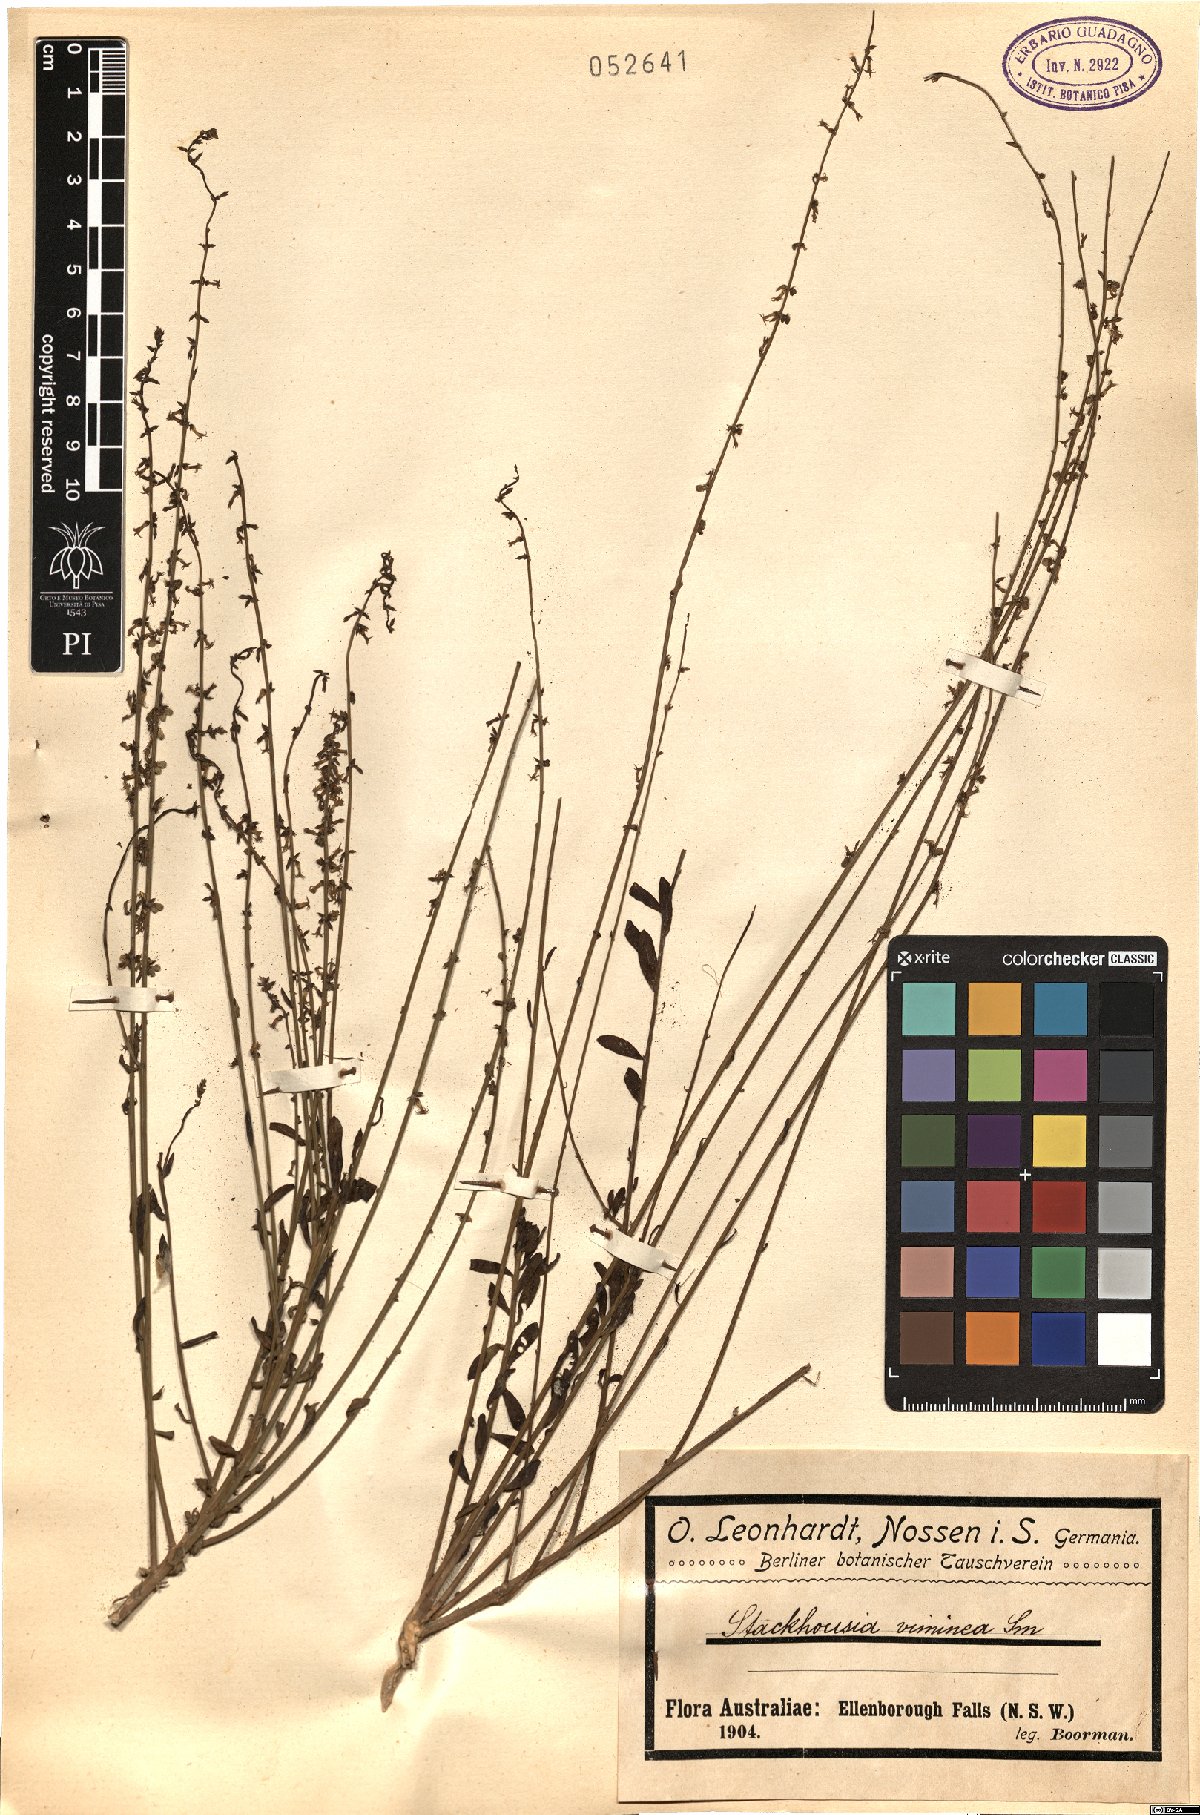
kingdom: Plantae
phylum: Tracheophyta
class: Magnoliopsida
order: Celastrales
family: Celastraceae
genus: Stackhousia
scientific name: Stackhousia viminea
